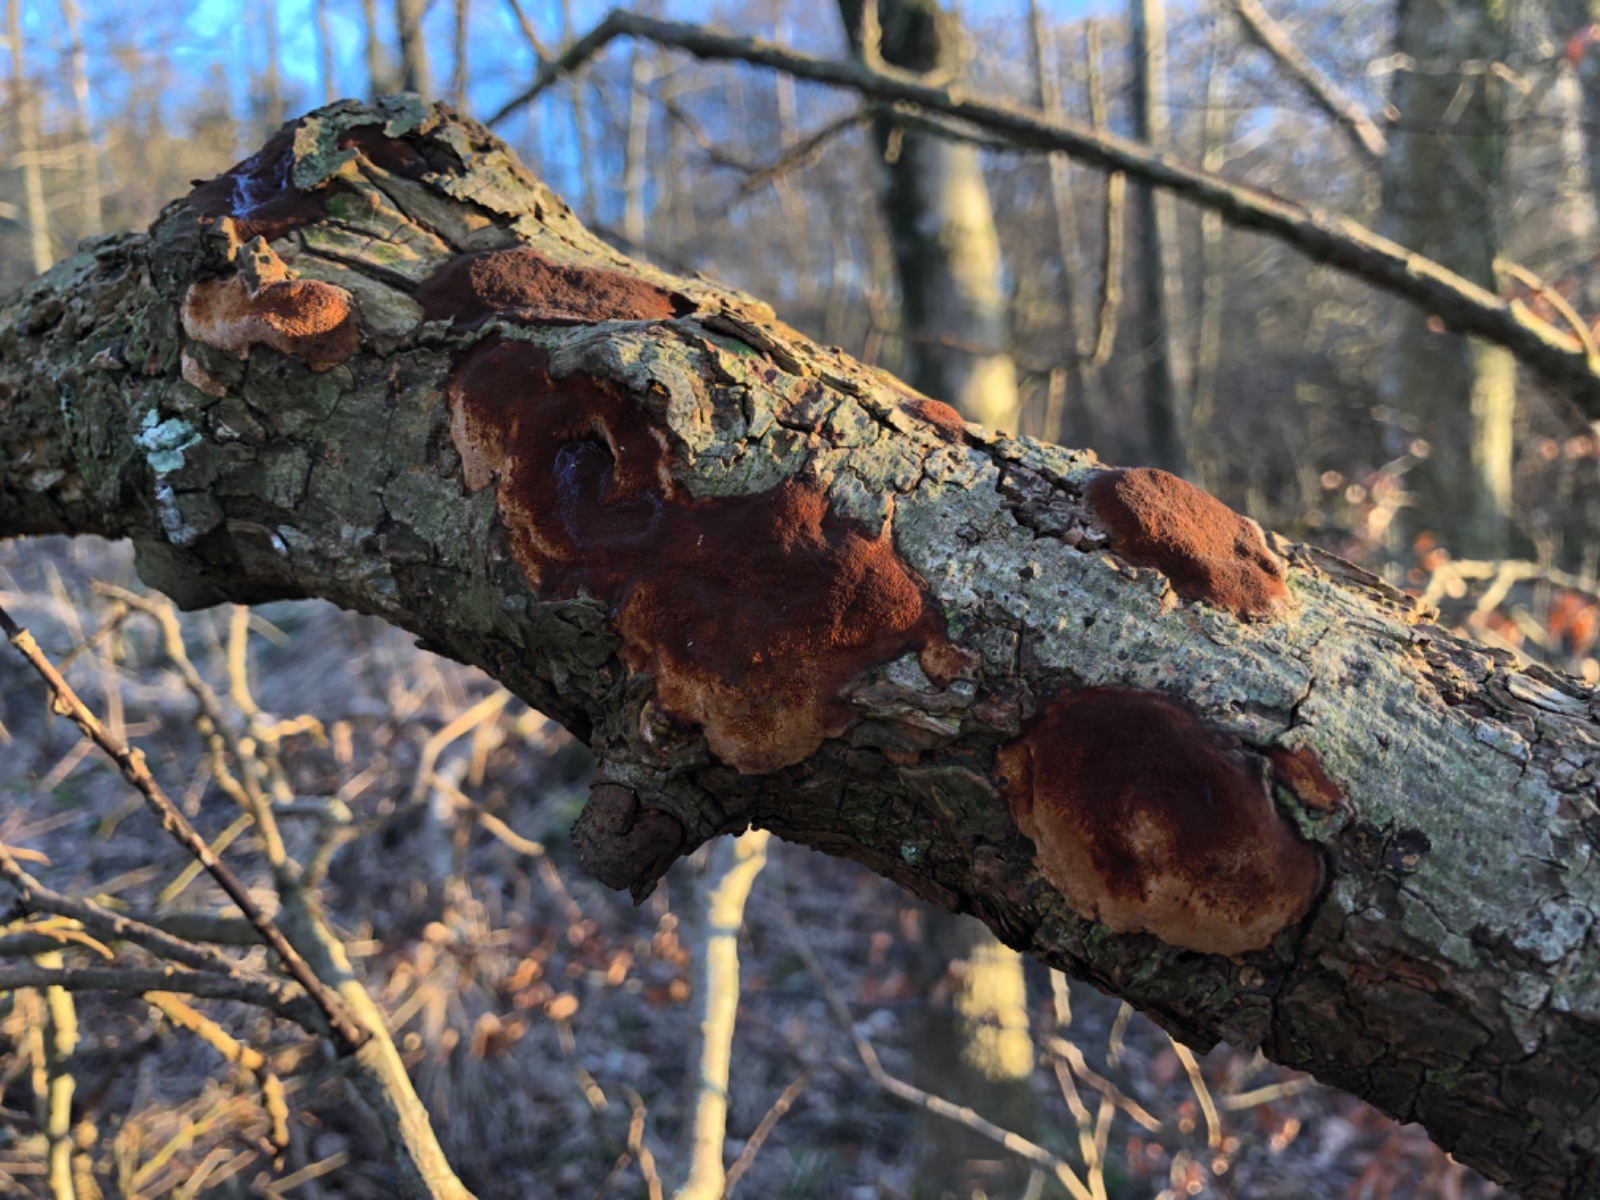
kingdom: Fungi
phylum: Basidiomycota
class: Agaricomycetes
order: Hymenochaetales
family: Hymenochaetaceae
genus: Fuscoporia
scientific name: Fuscoporia ferrea
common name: skorpe-ildporesvamp
